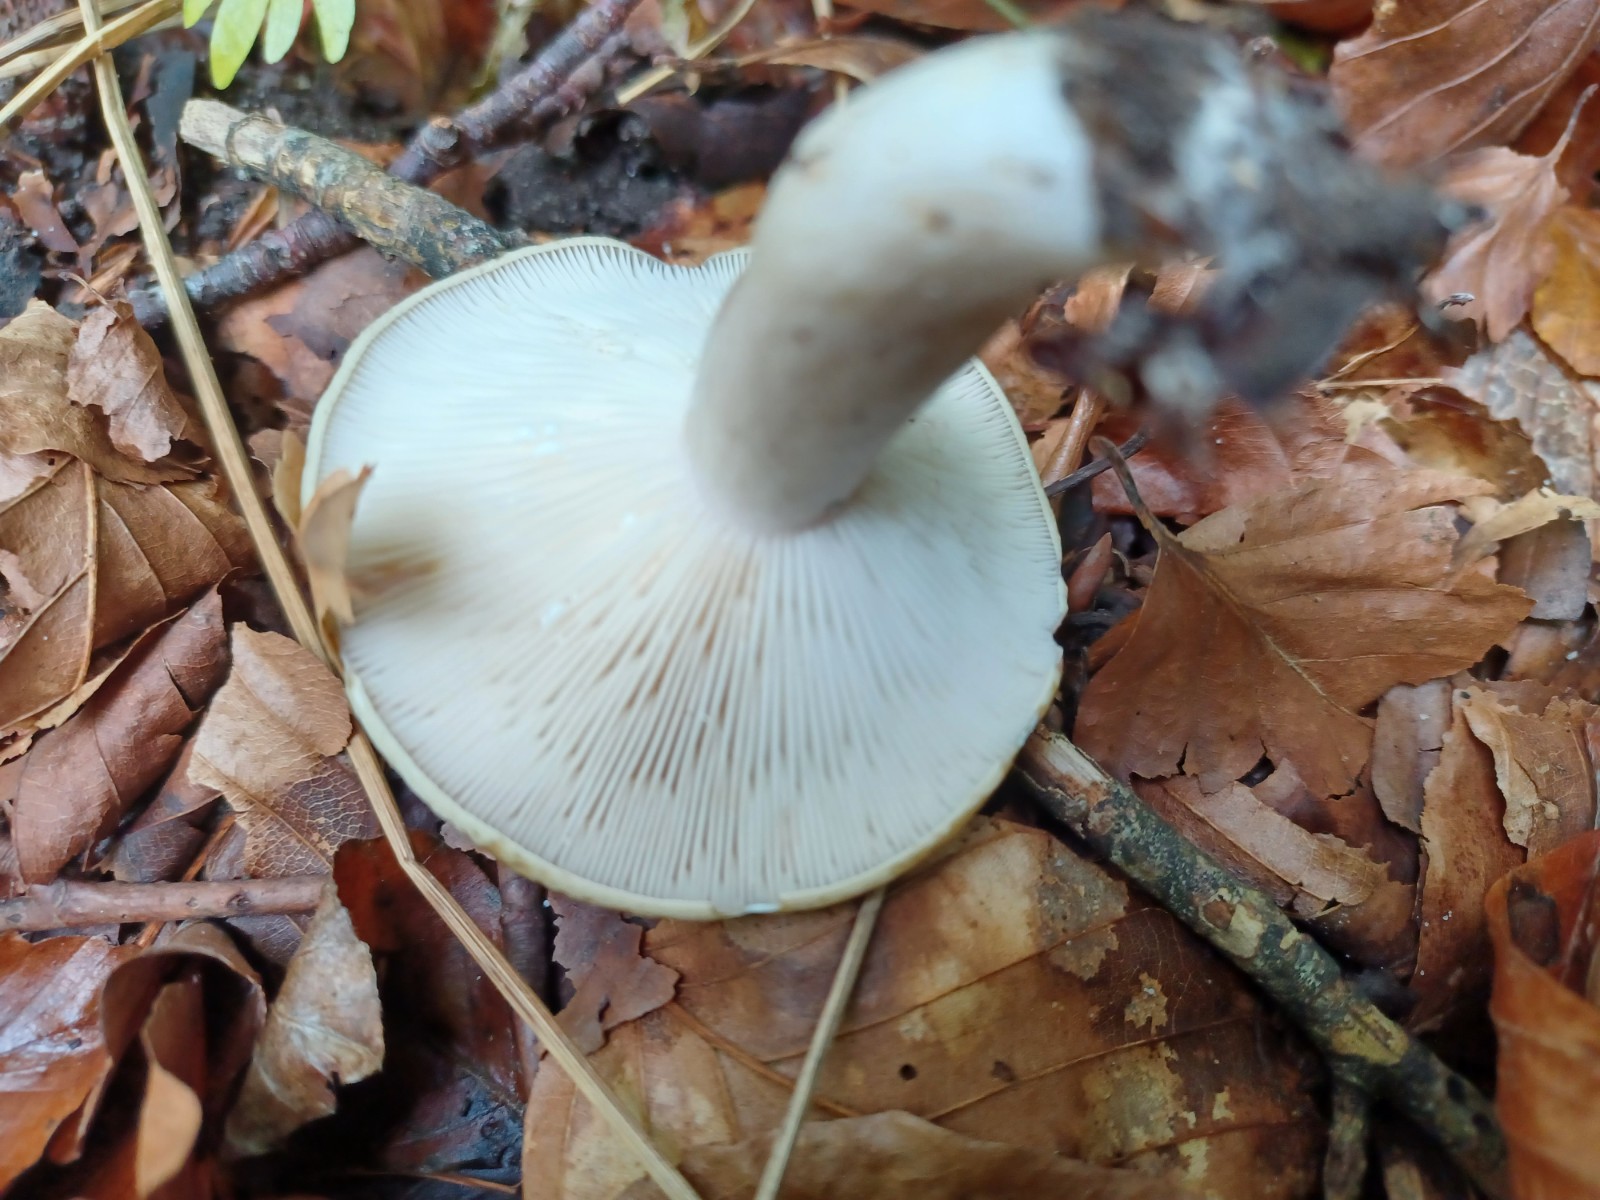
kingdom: Fungi
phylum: Basidiomycota
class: Agaricomycetes
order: Russulales
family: Russulaceae
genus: Lactarius
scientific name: Lactarius blennius
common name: dråbeplettet mælkehat
